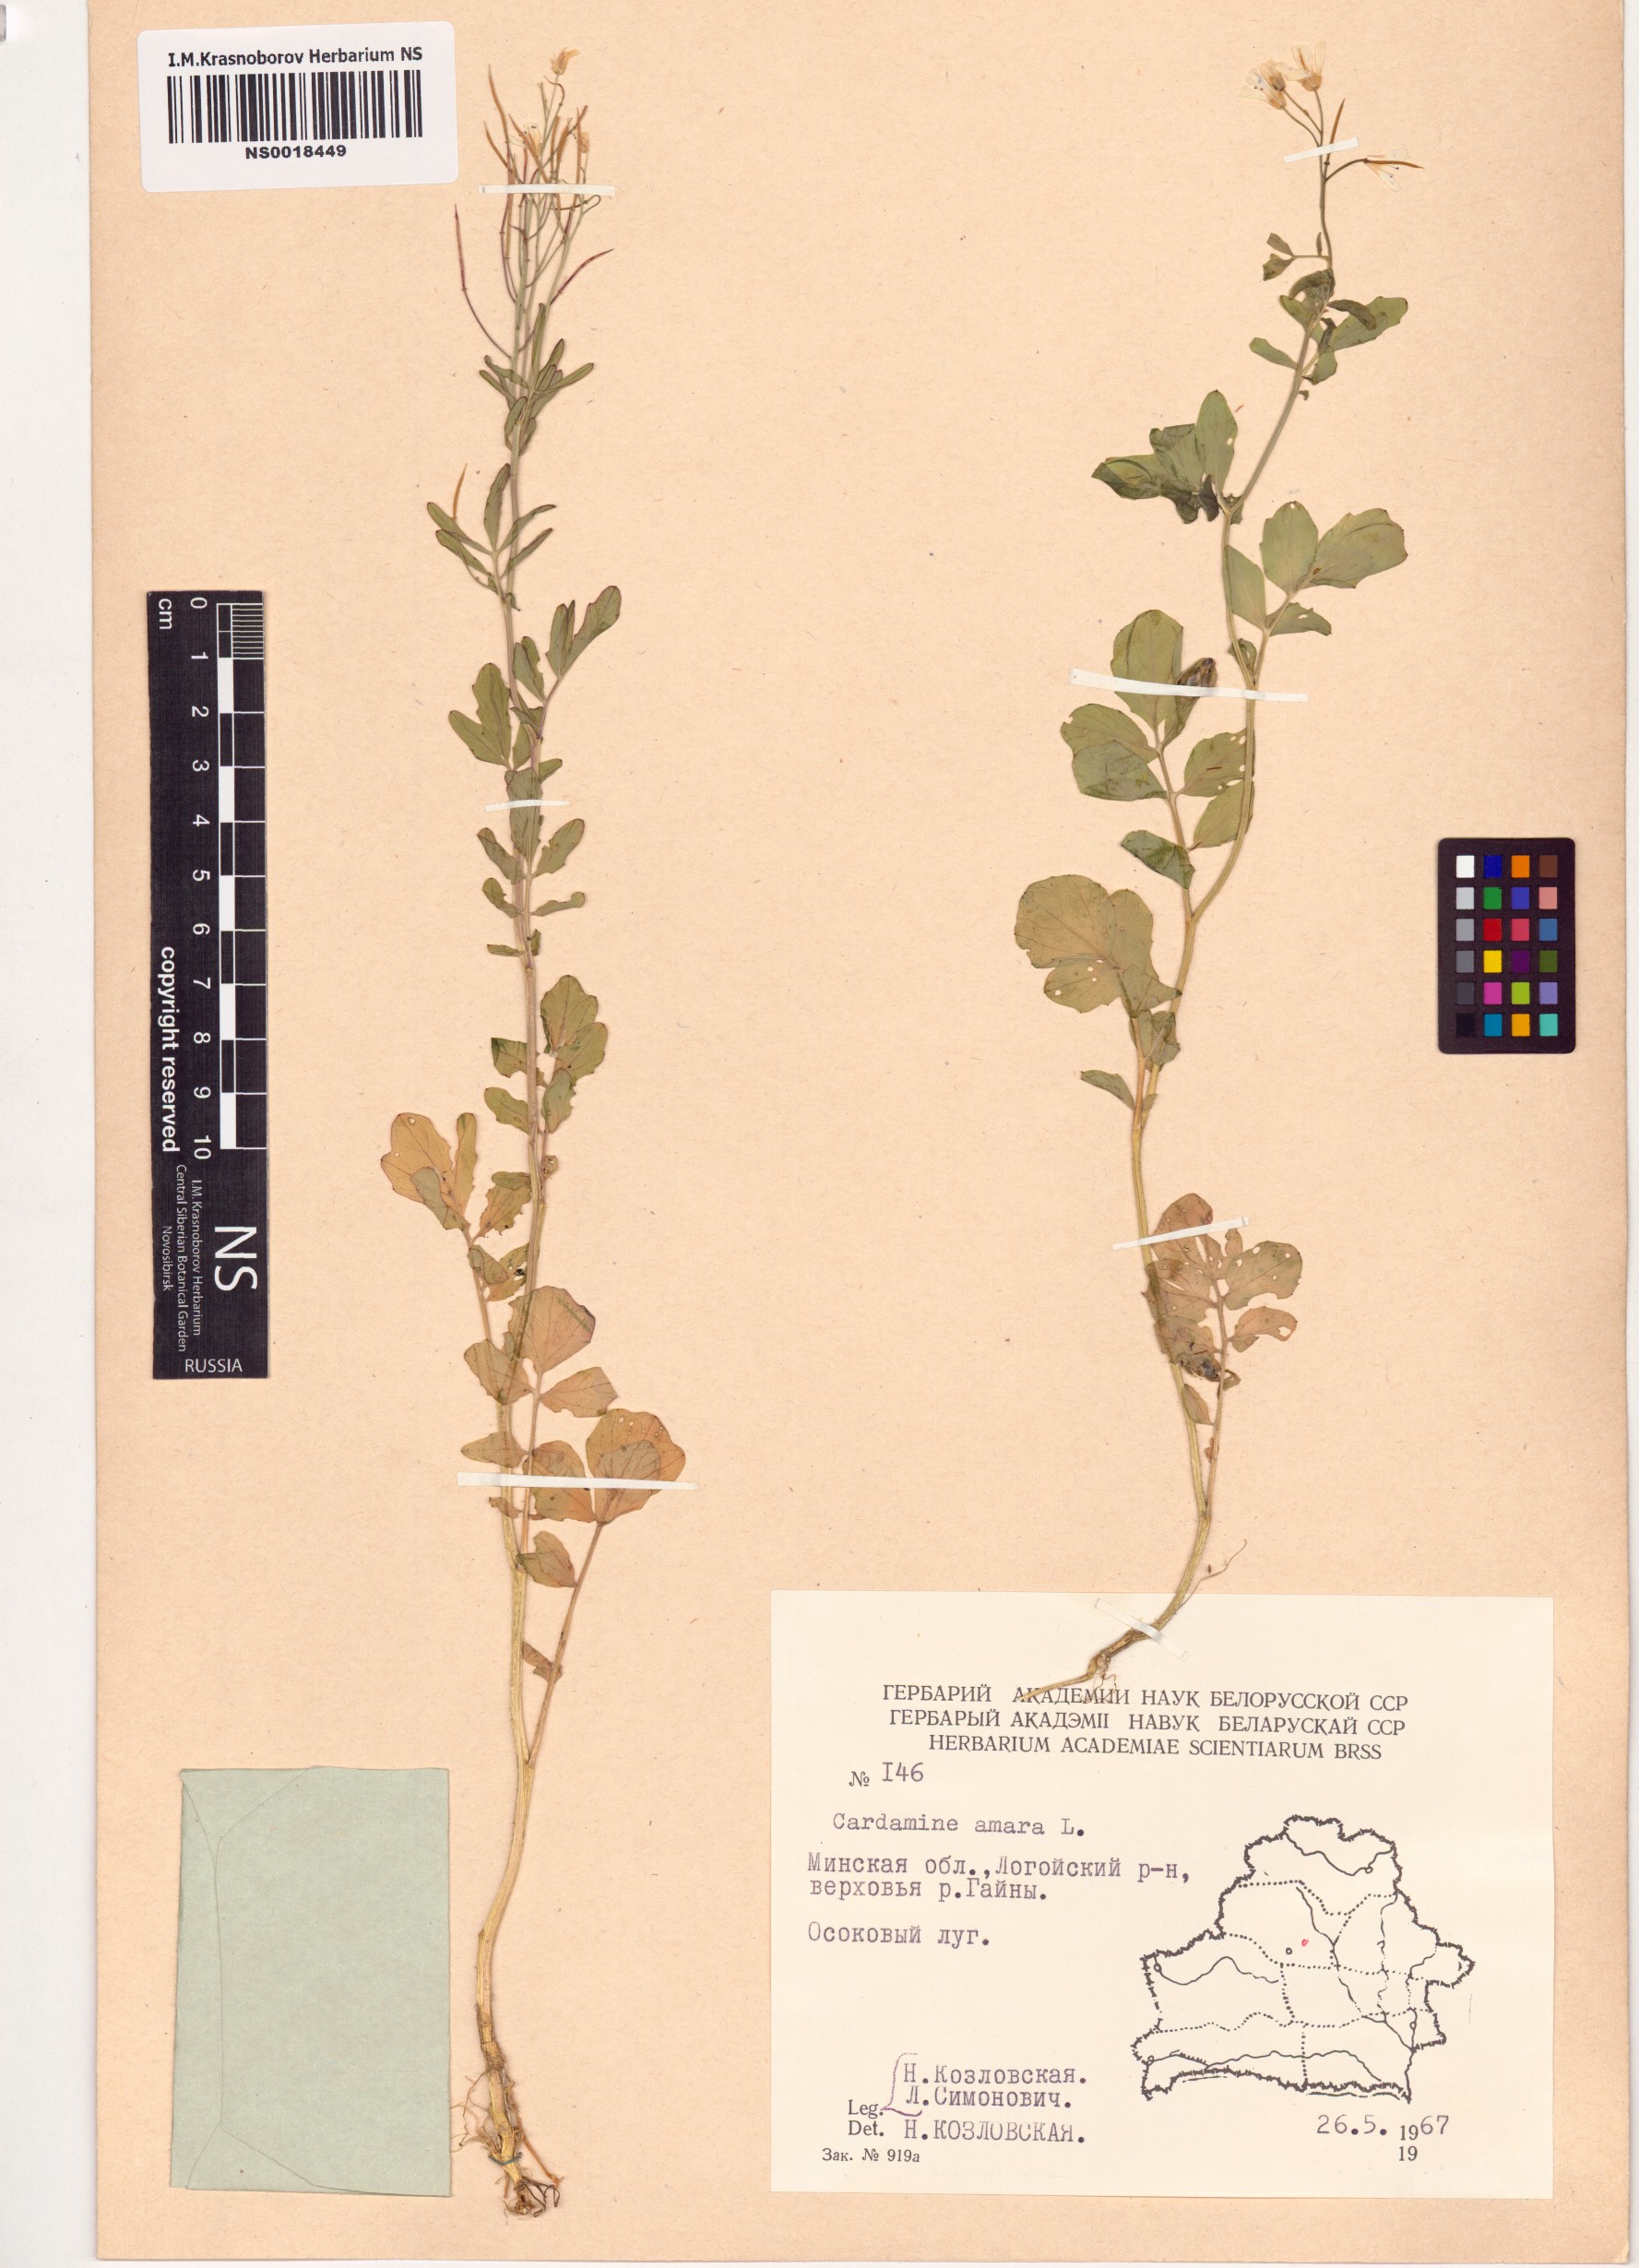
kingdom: Plantae
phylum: Tracheophyta
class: Magnoliopsida
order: Brassicales
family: Brassicaceae
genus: Cardamine
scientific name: Cardamine amara
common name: Large bitter-cress
